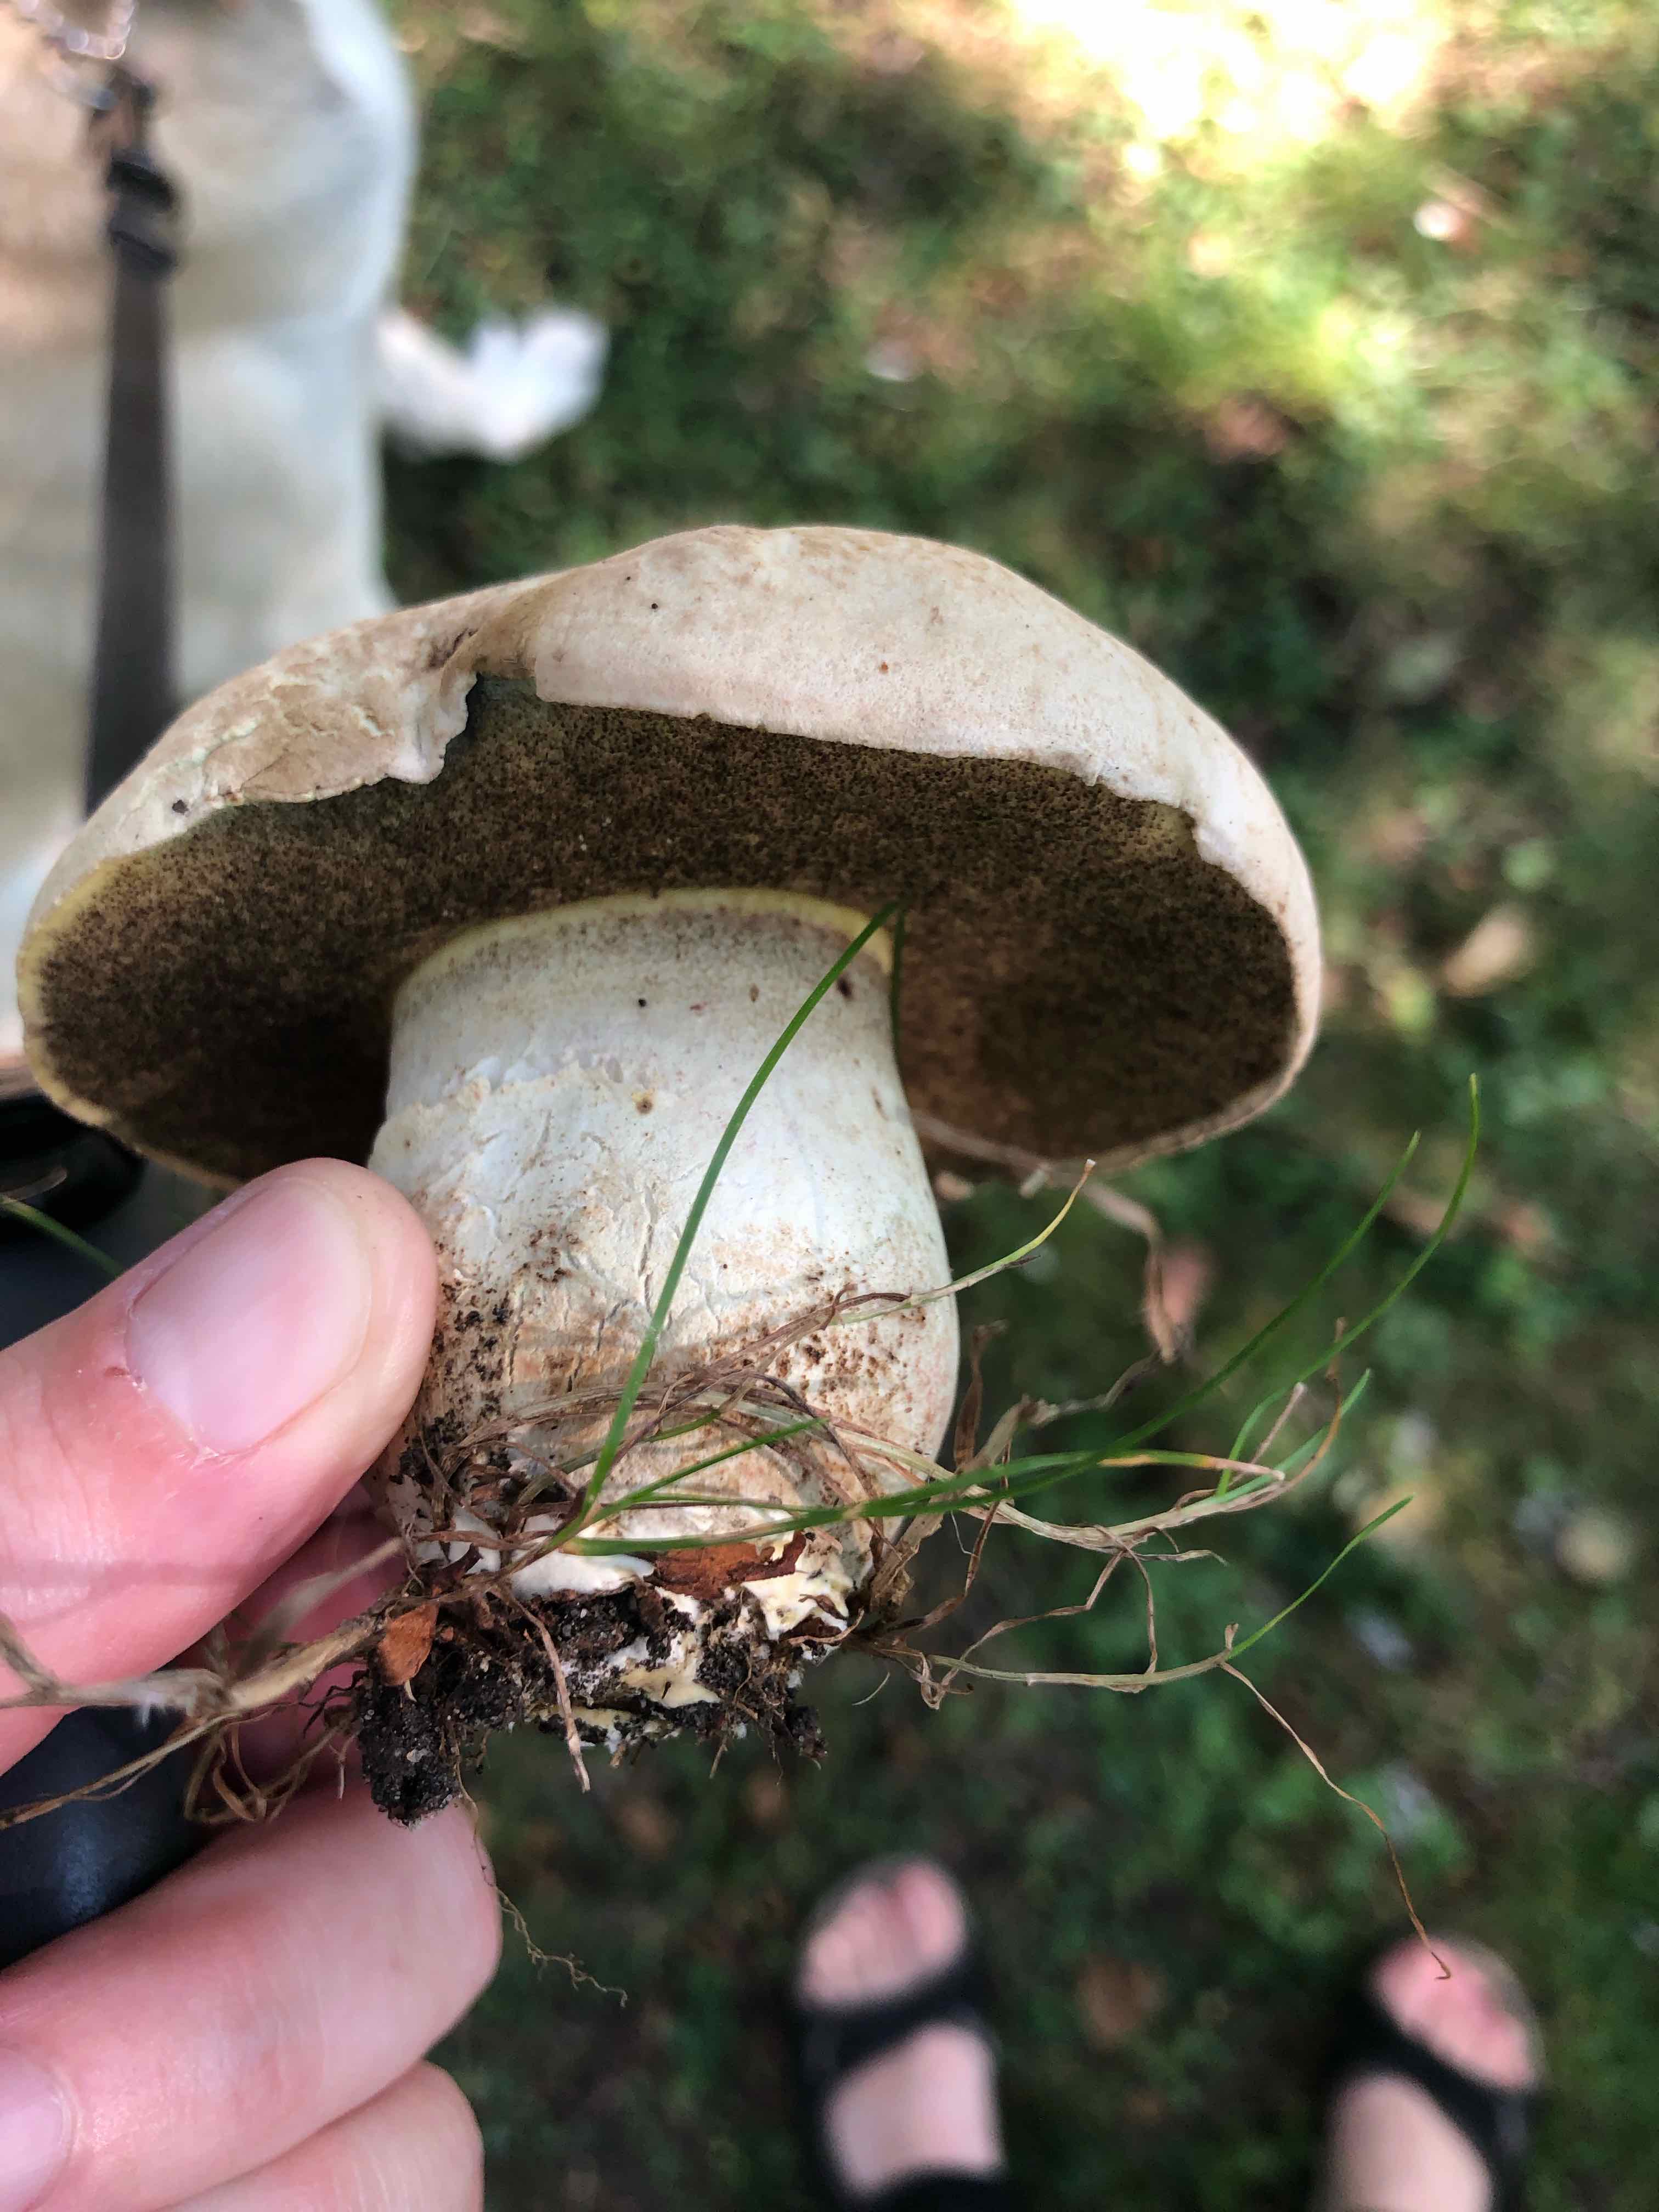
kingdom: Fungi
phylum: Basidiomycota
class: Agaricomycetes
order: Boletales
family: Boletaceae
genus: Caloboletus
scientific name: Caloboletus radicans
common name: rod-rørhat
